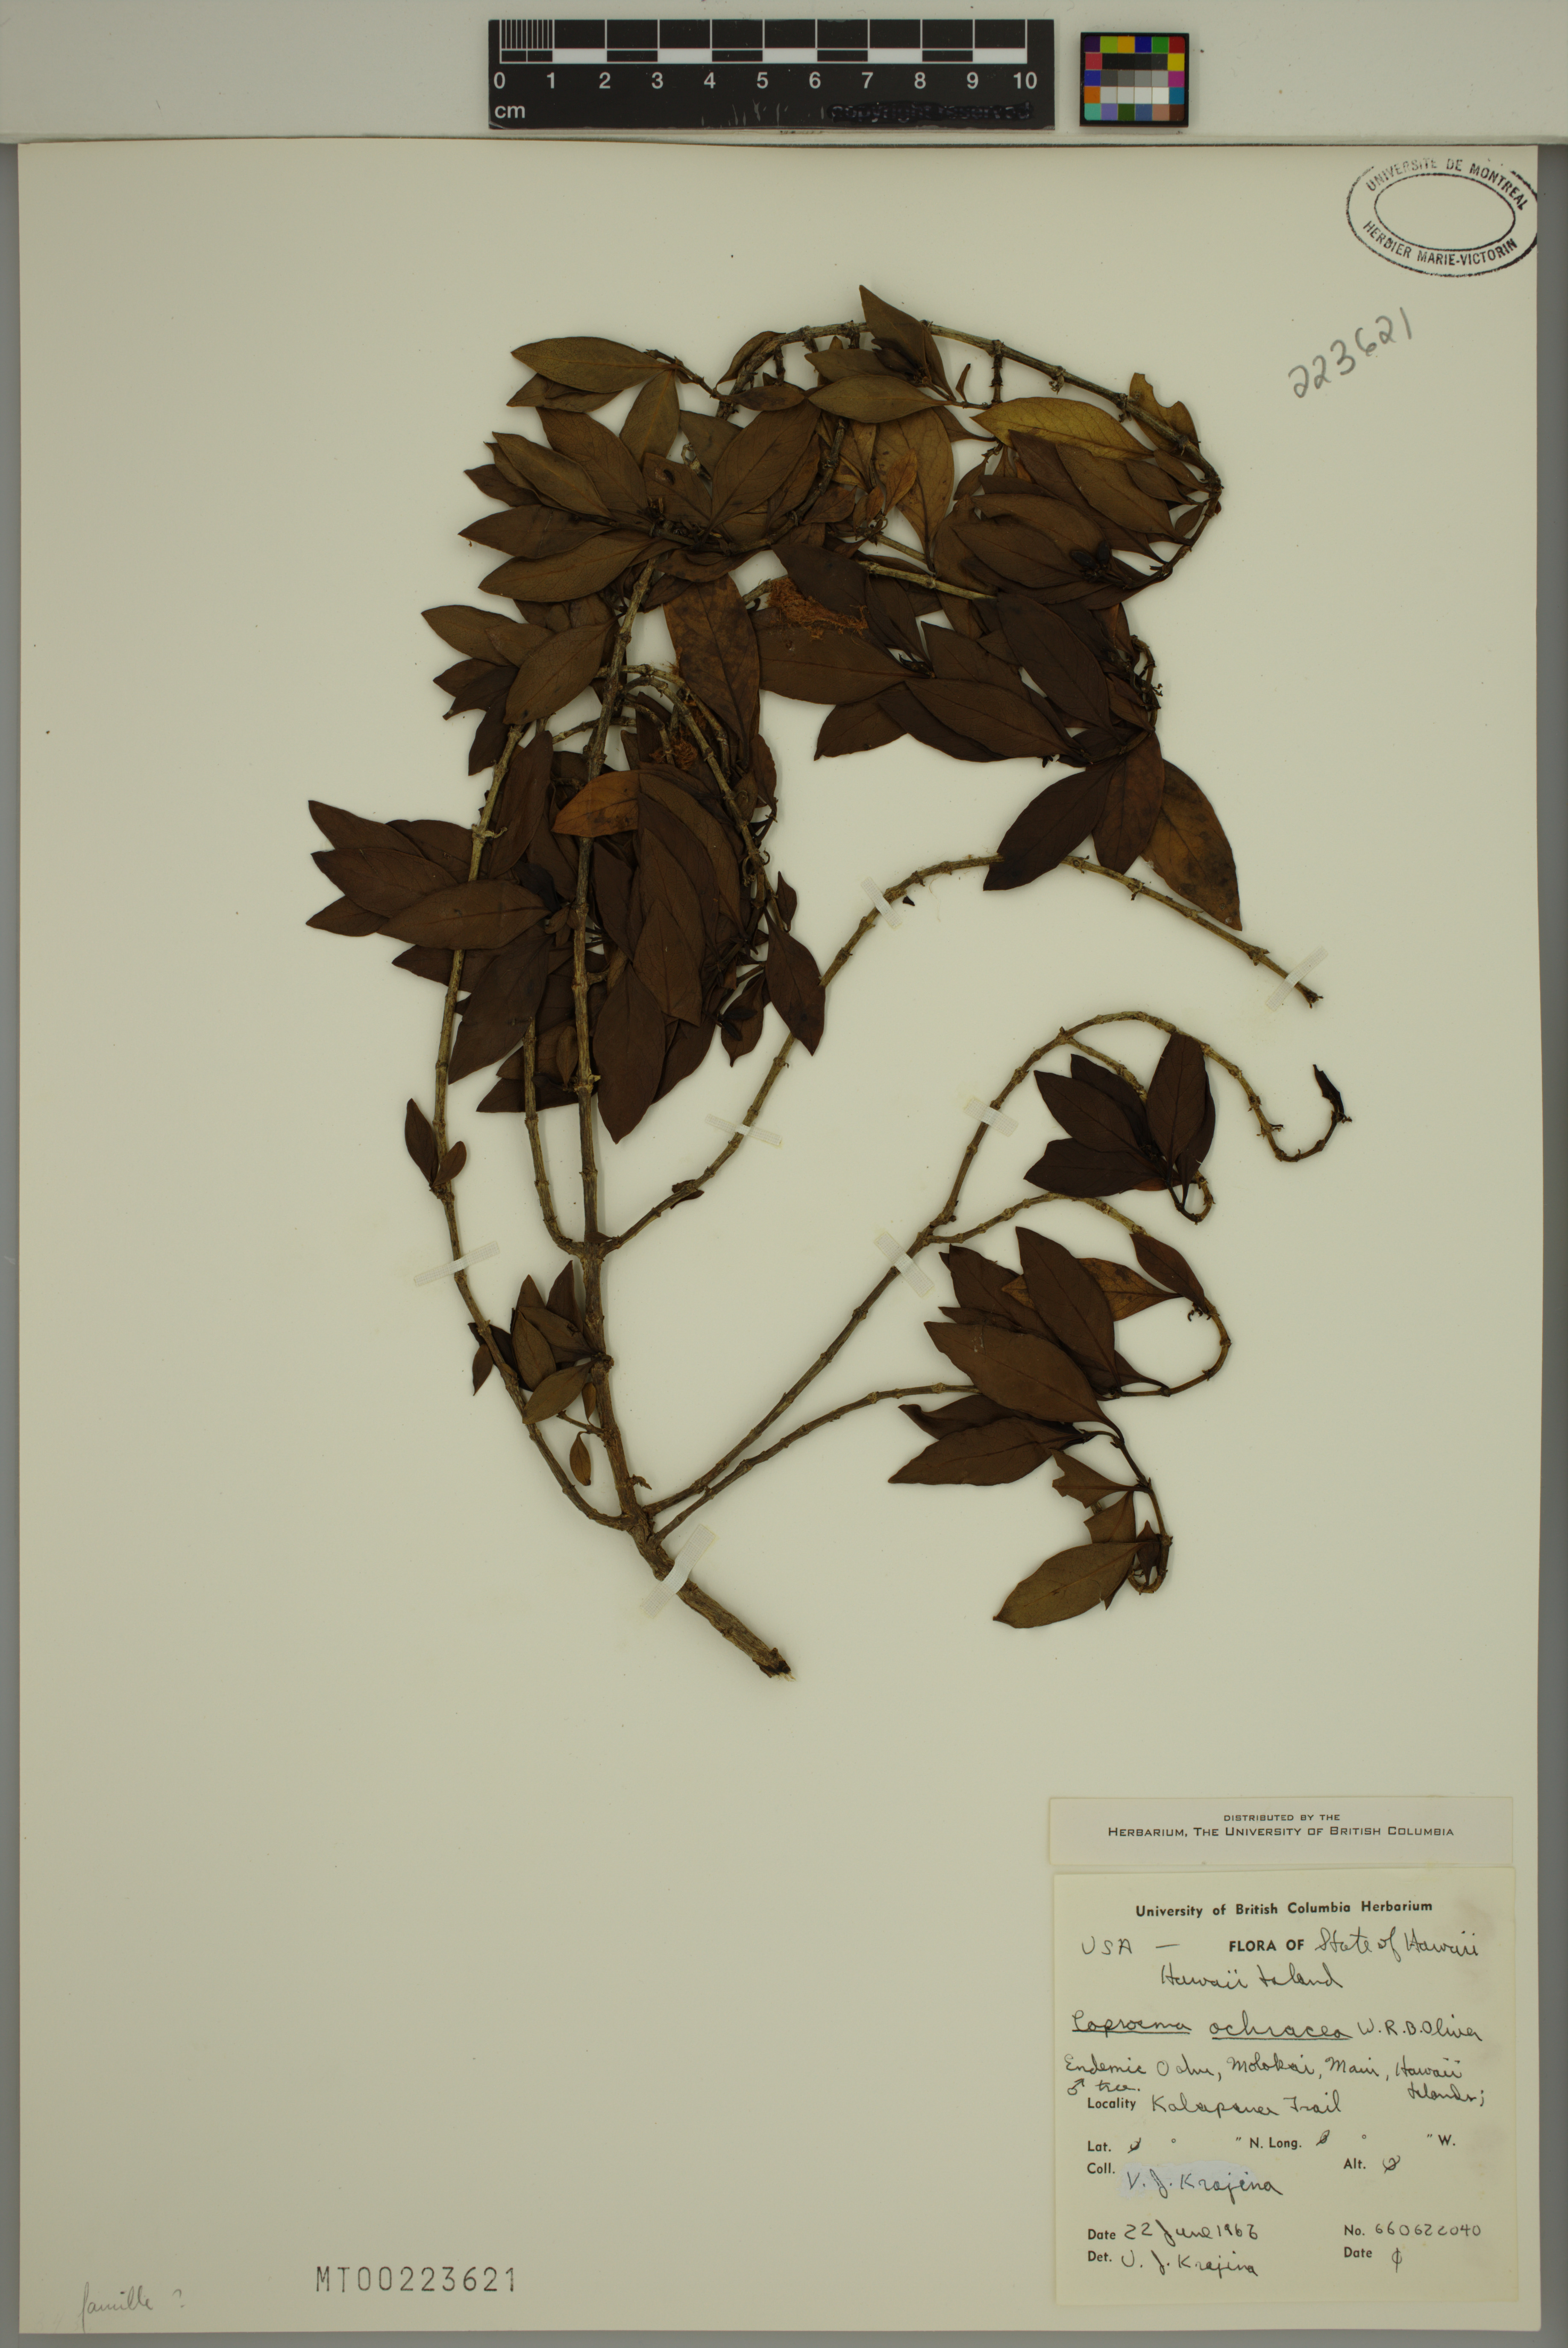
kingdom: Plantae
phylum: Tracheophyta
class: Magnoliopsida
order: Gentianales
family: Rubiaceae
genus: Coprosma
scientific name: Coprosma ochracea
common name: Maui mirrorplant
